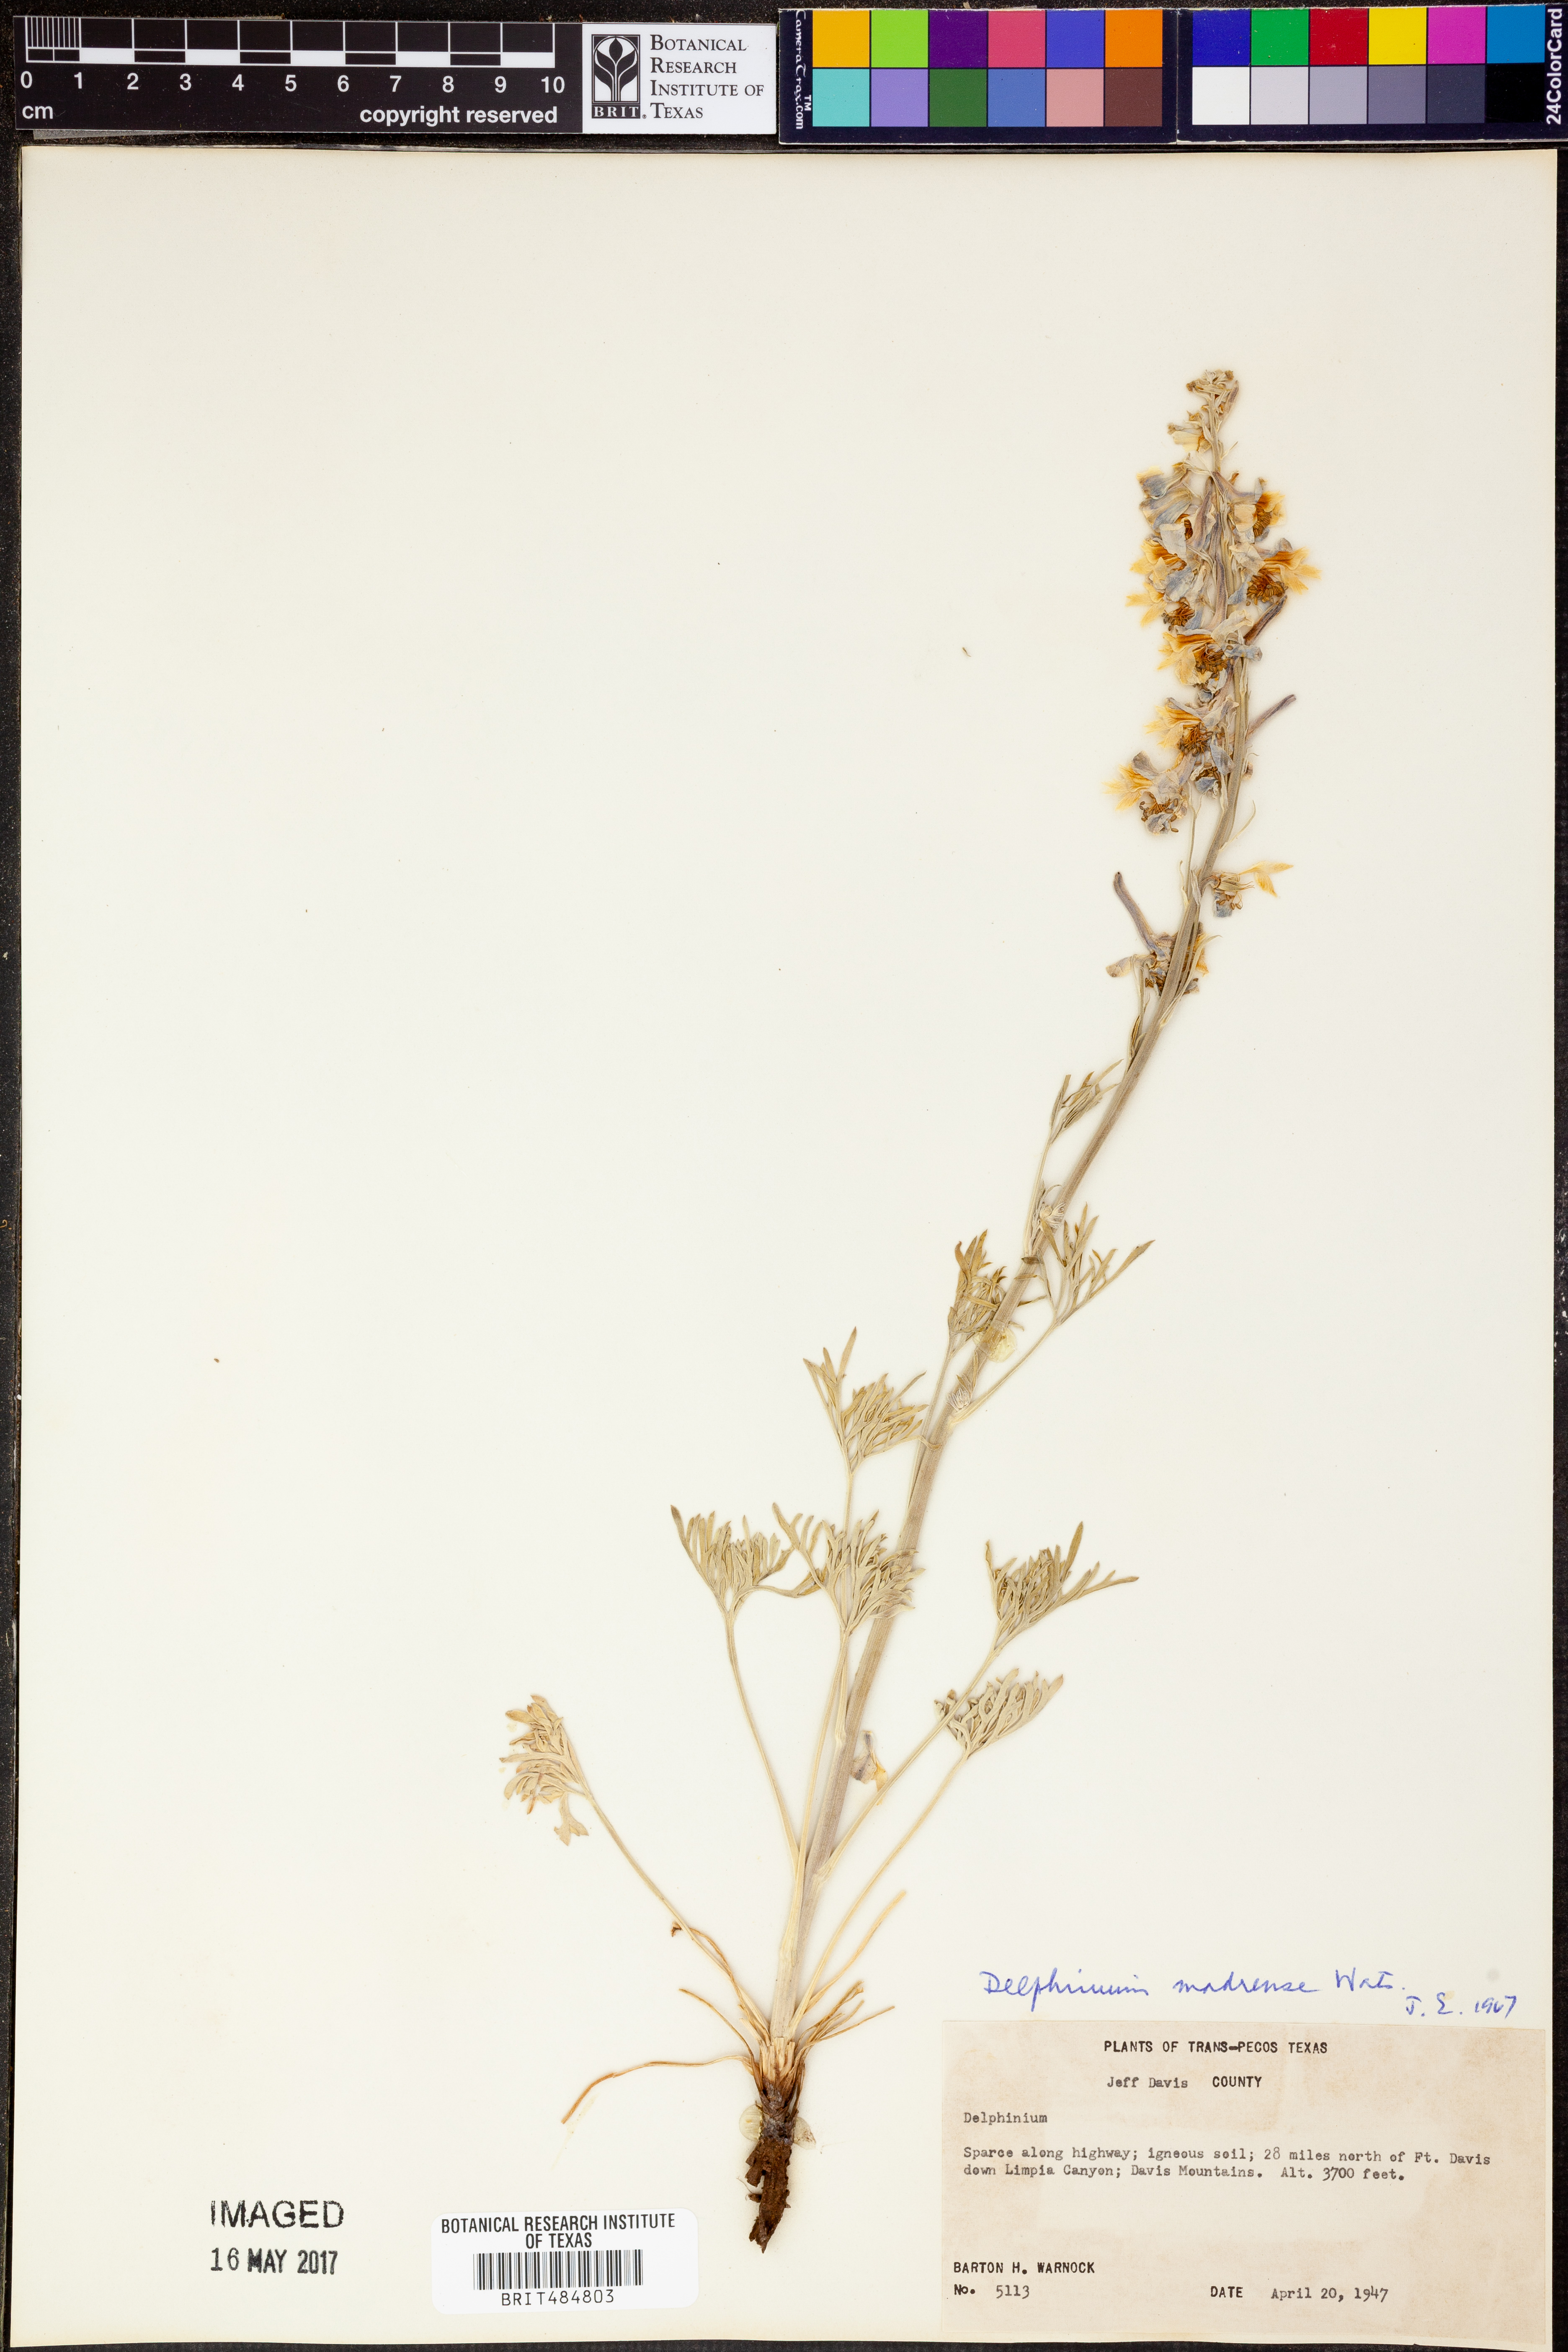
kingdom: Plantae
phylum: Tracheophyta
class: Magnoliopsida
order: Ranunculales
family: Ranunculaceae
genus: Delphinium
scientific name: Delphinium madrense
